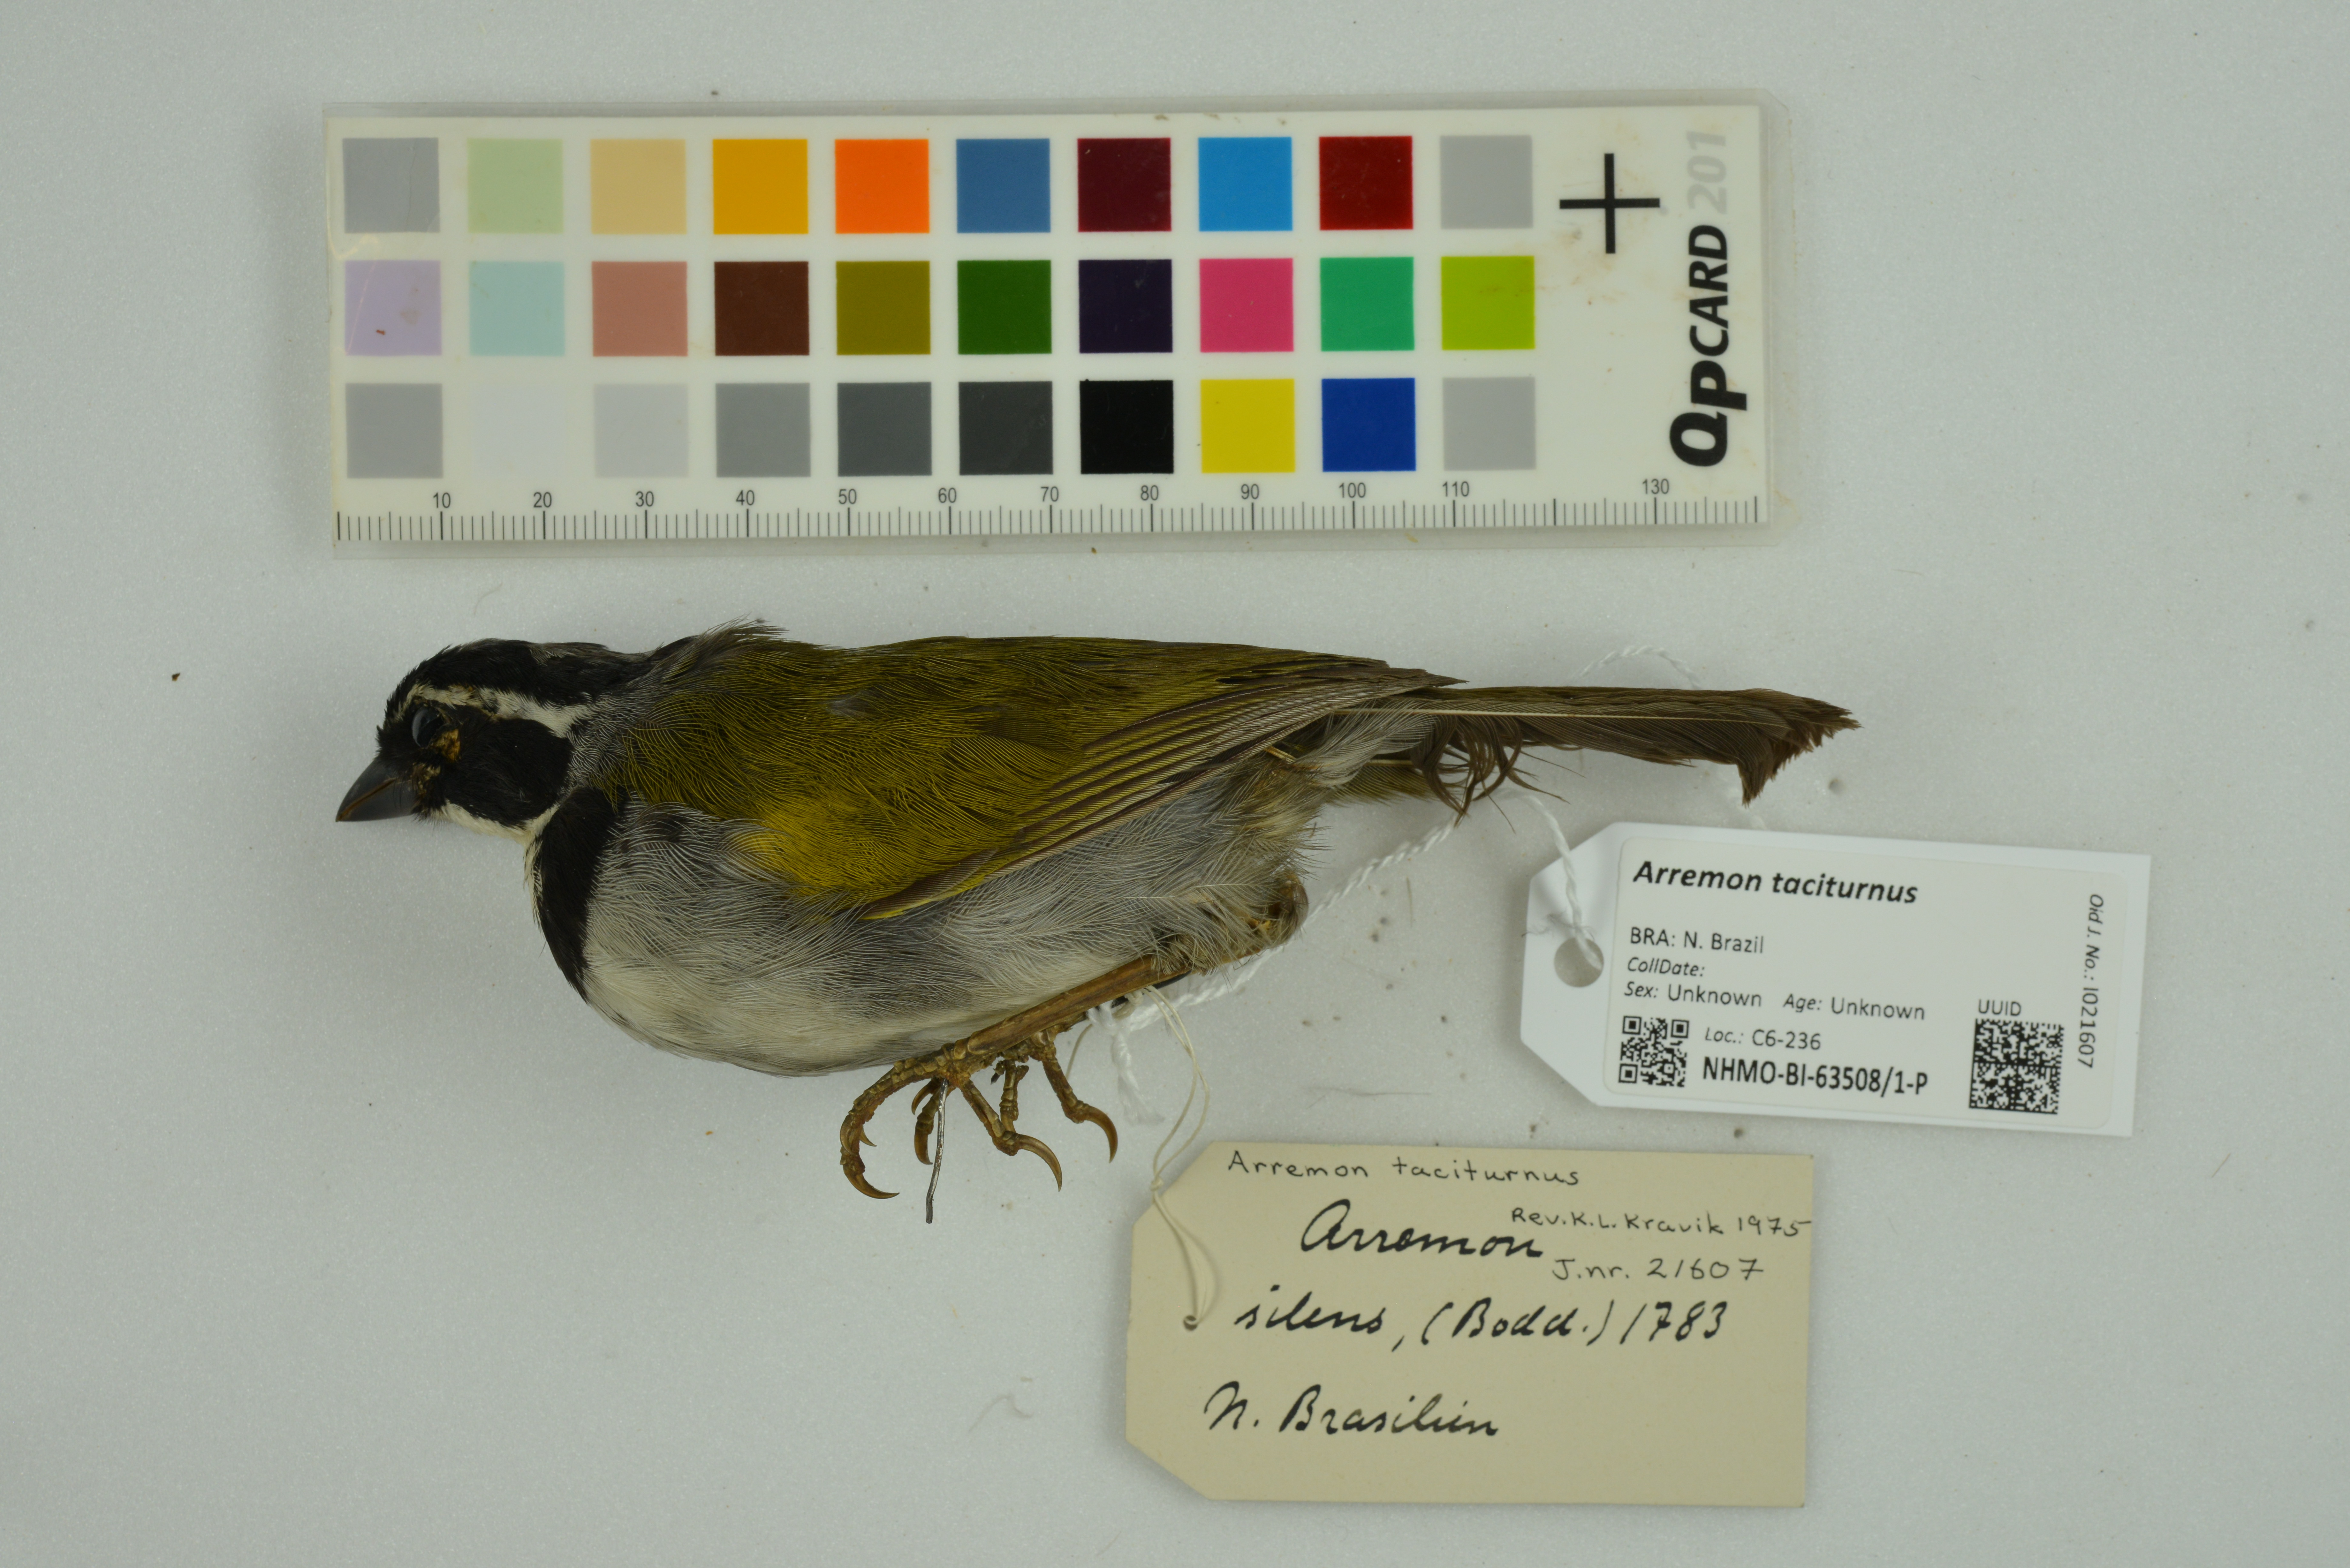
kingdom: Animalia
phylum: Chordata
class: Aves
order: Passeriformes
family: Passerellidae
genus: Arremon
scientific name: Arremon taciturnus
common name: Pectoral sparrow
